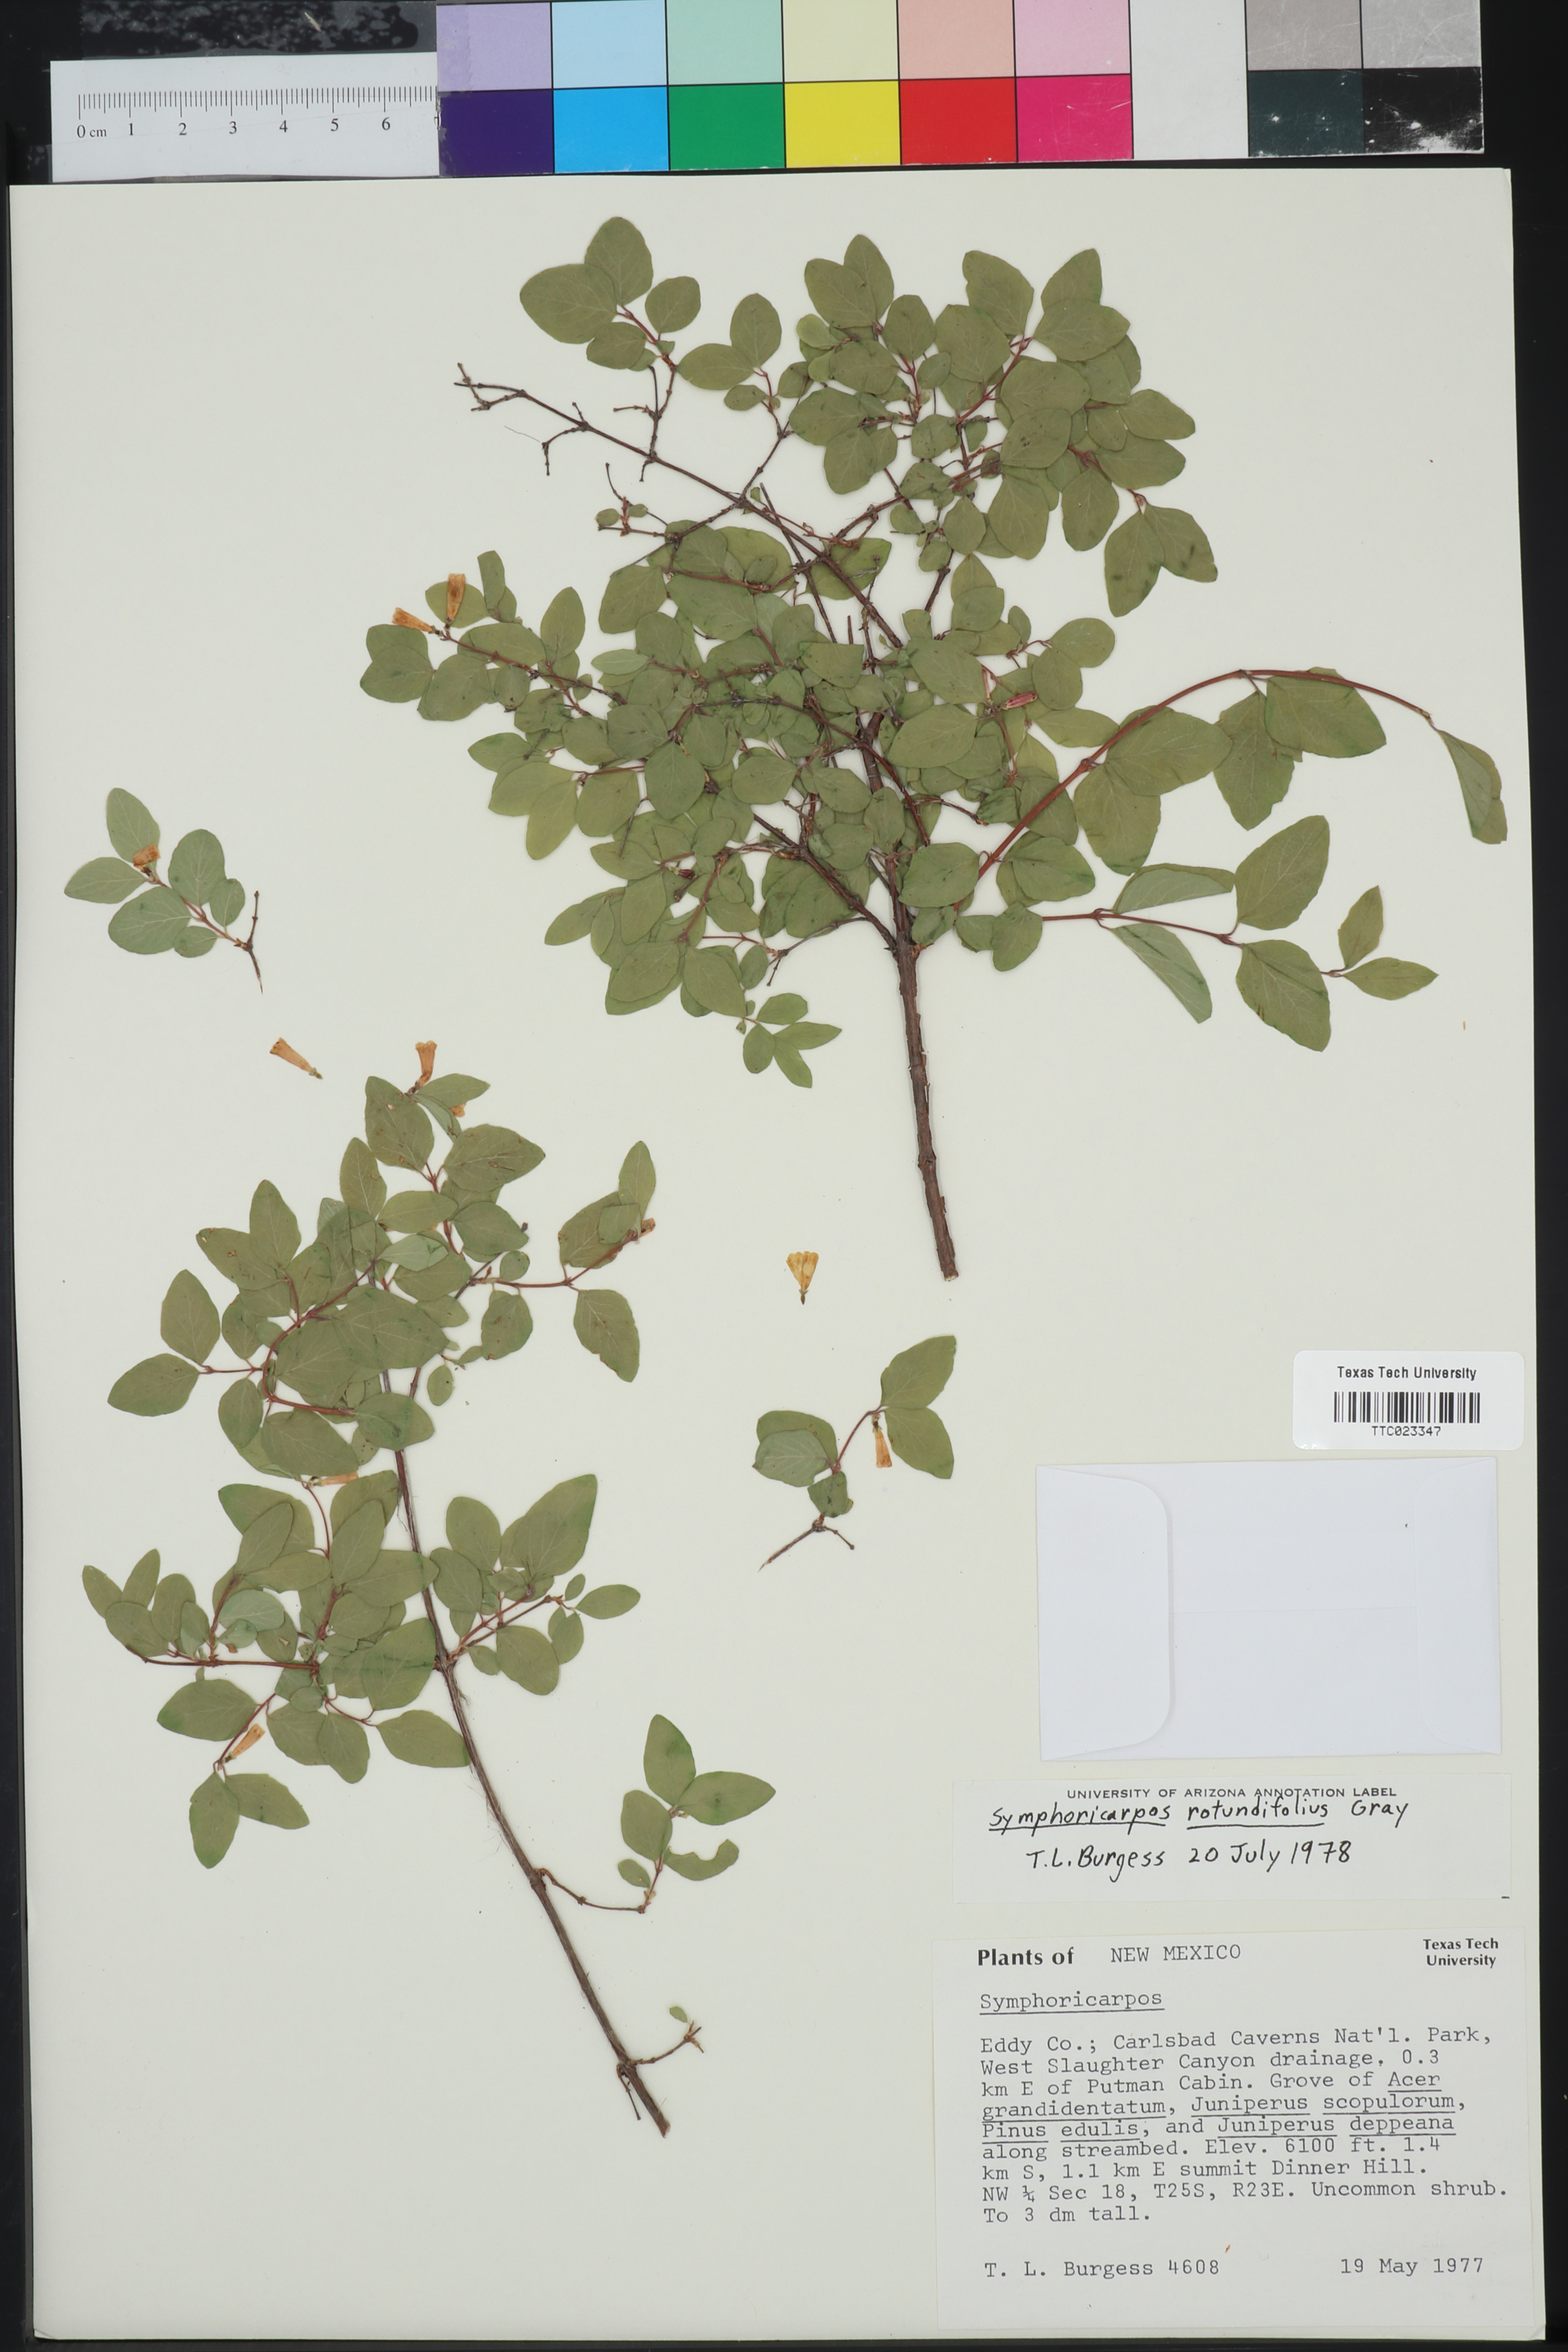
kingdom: Plantae
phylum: Tracheophyta
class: Magnoliopsida
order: Dipsacales
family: Caprifoliaceae
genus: Symphoricarpos
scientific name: Symphoricarpos rotundifolius
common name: Round-leaved snowberry
